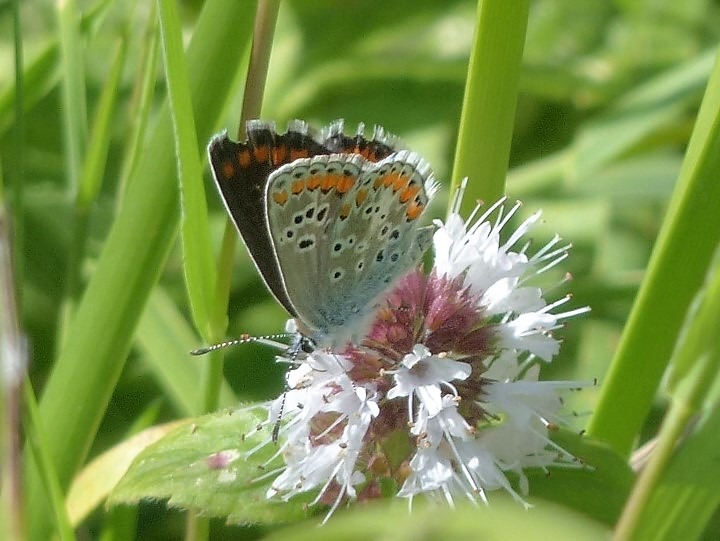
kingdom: Animalia
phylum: Arthropoda
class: Insecta
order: Lepidoptera
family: Lycaenidae
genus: Aricia
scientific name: Aricia agestis
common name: Rødplettet blåfugl
